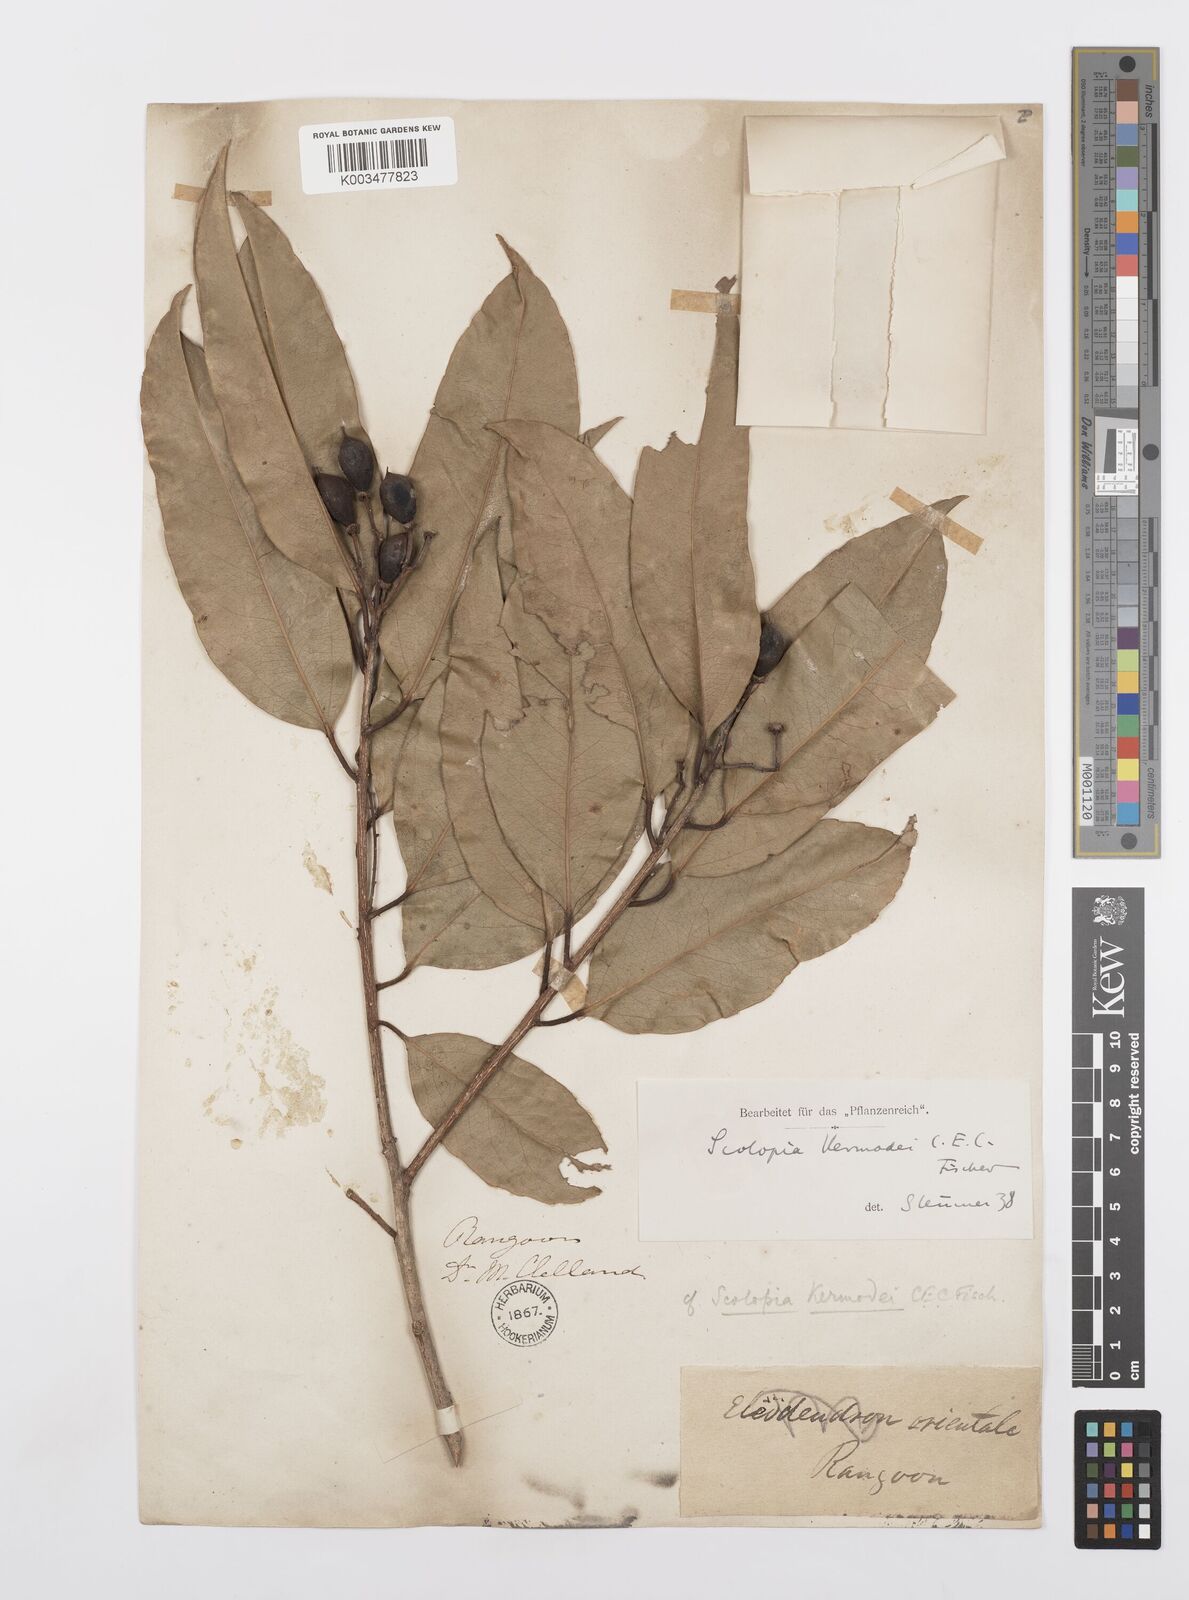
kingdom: Plantae
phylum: Tracheophyta
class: Magnoliopsida
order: Malpighiales
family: Salicaceae
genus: Scolopia
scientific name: Scolopia kermodei
